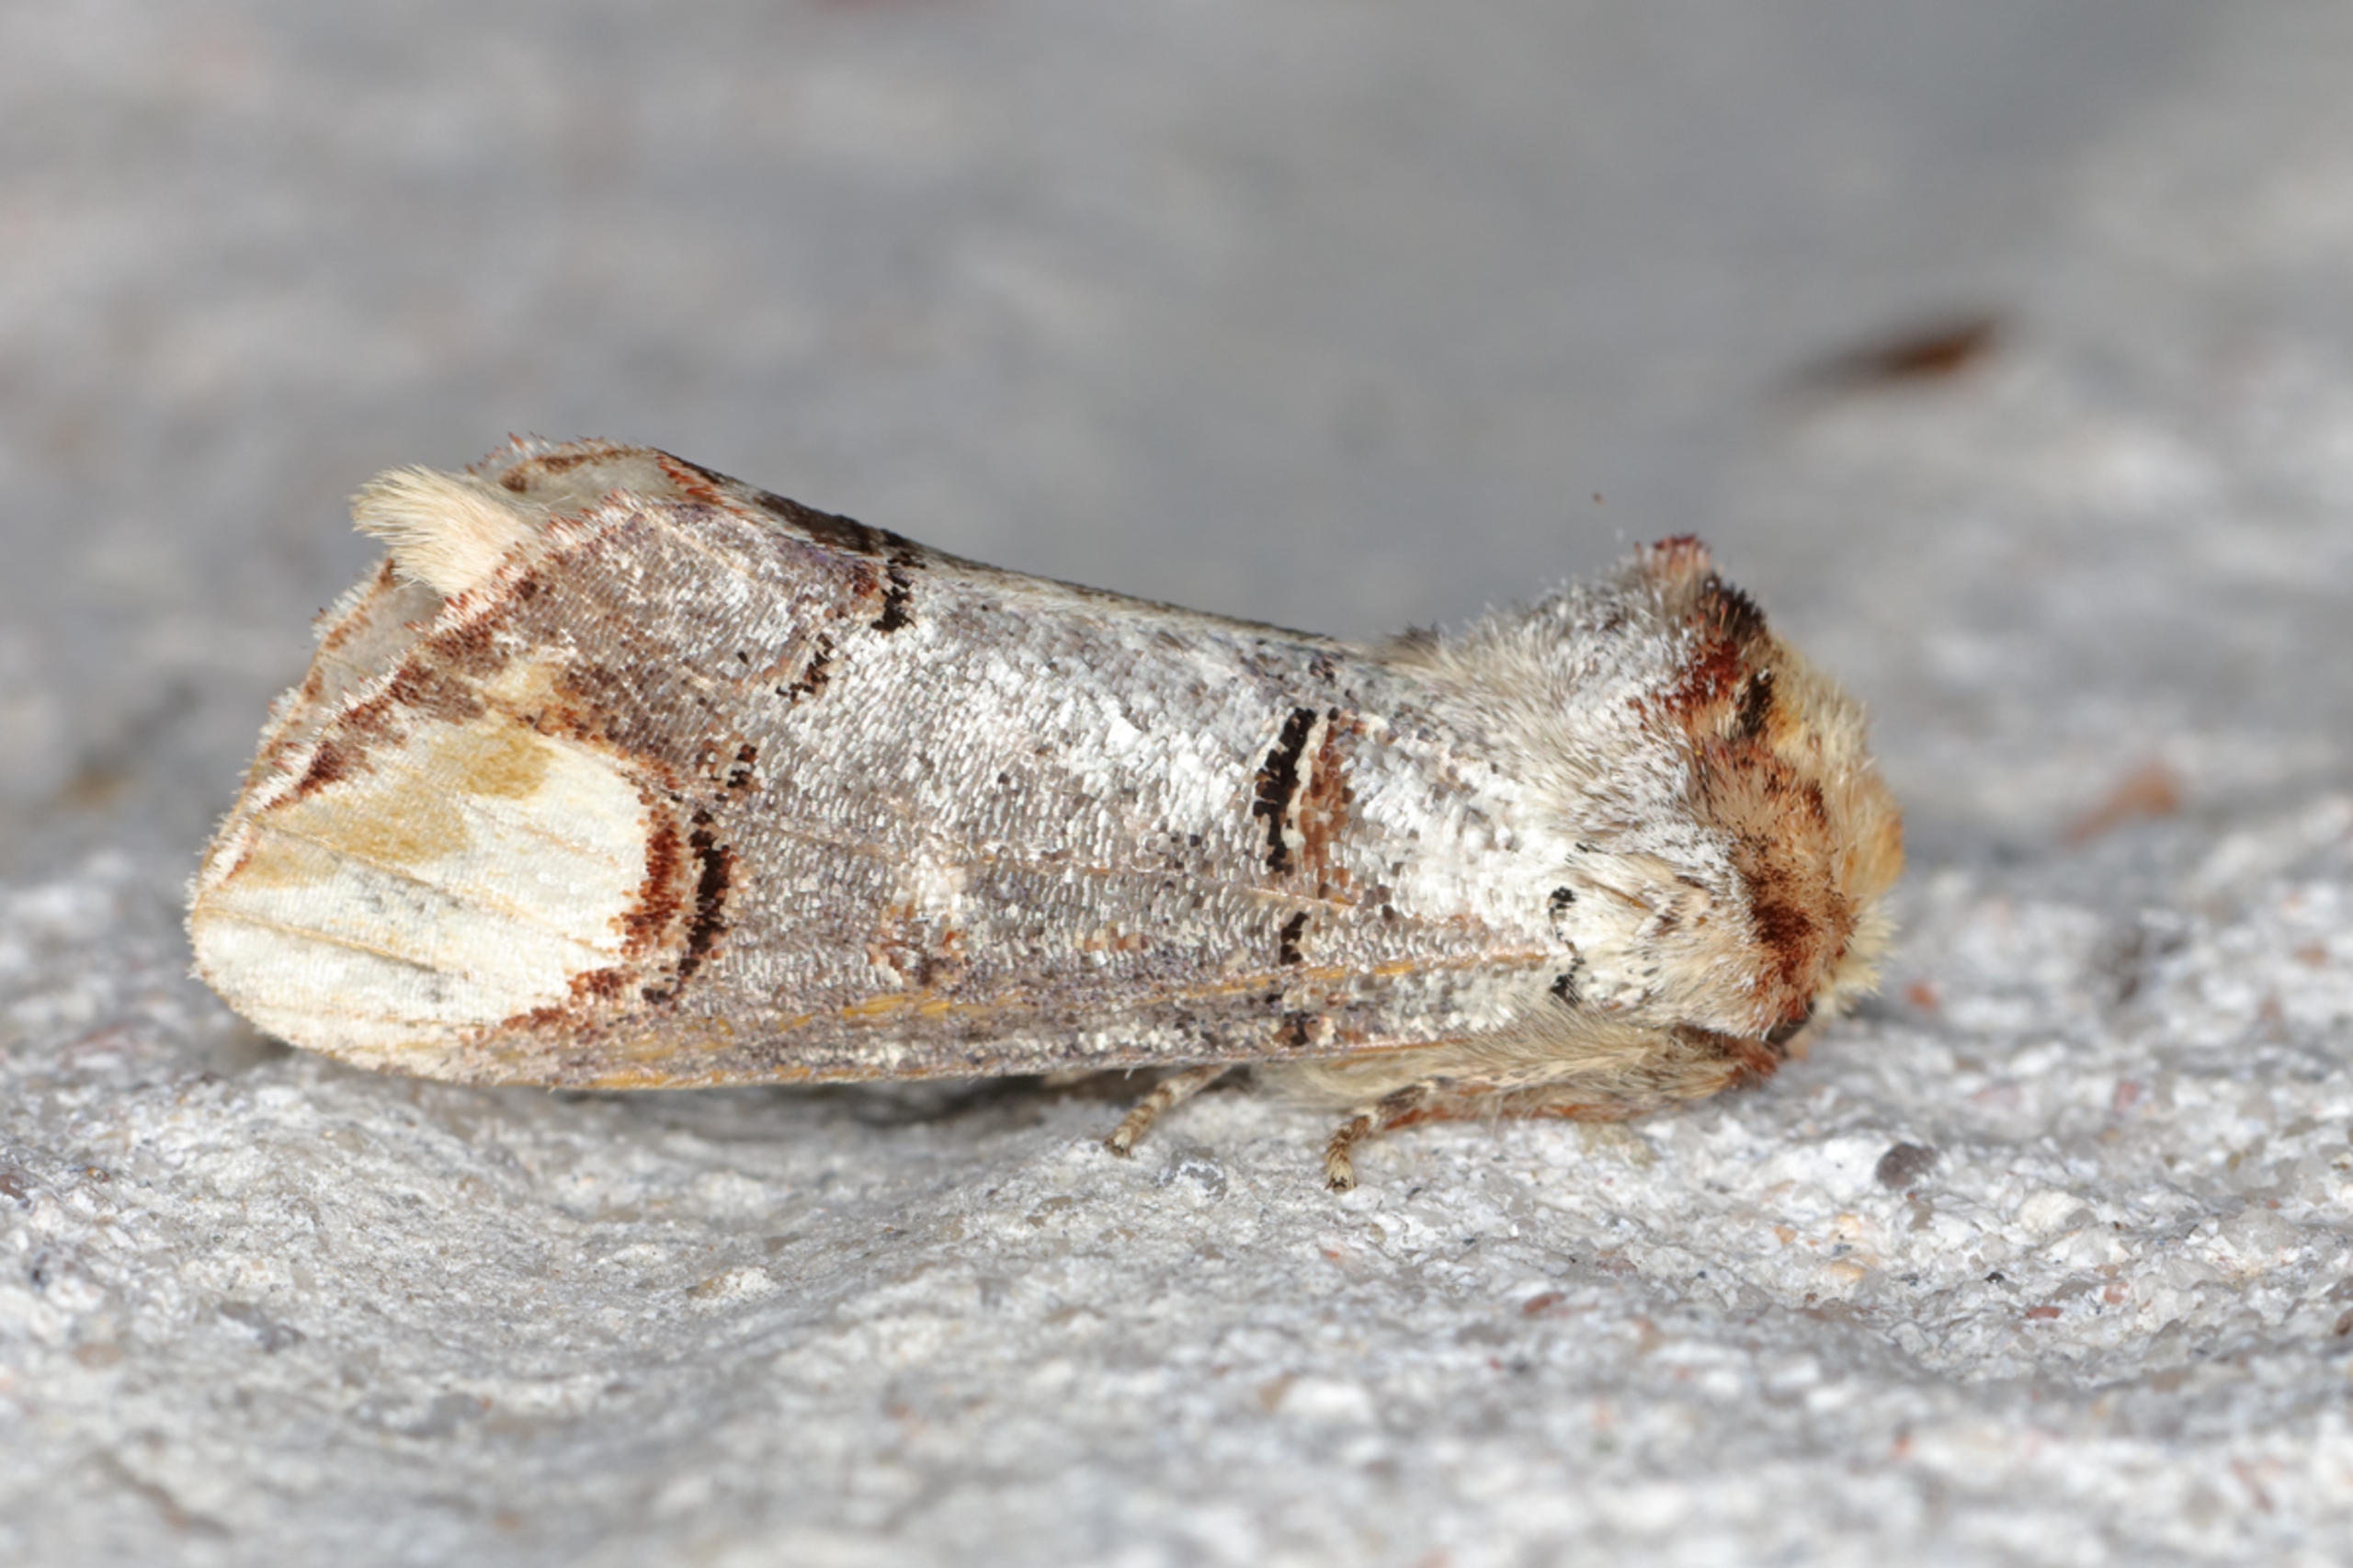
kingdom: Animalia
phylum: Arthropoda
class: Insecta
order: Lepidoptera
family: Notodontidae
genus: Phalera
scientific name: Phalera bucephala
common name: Måneplet
